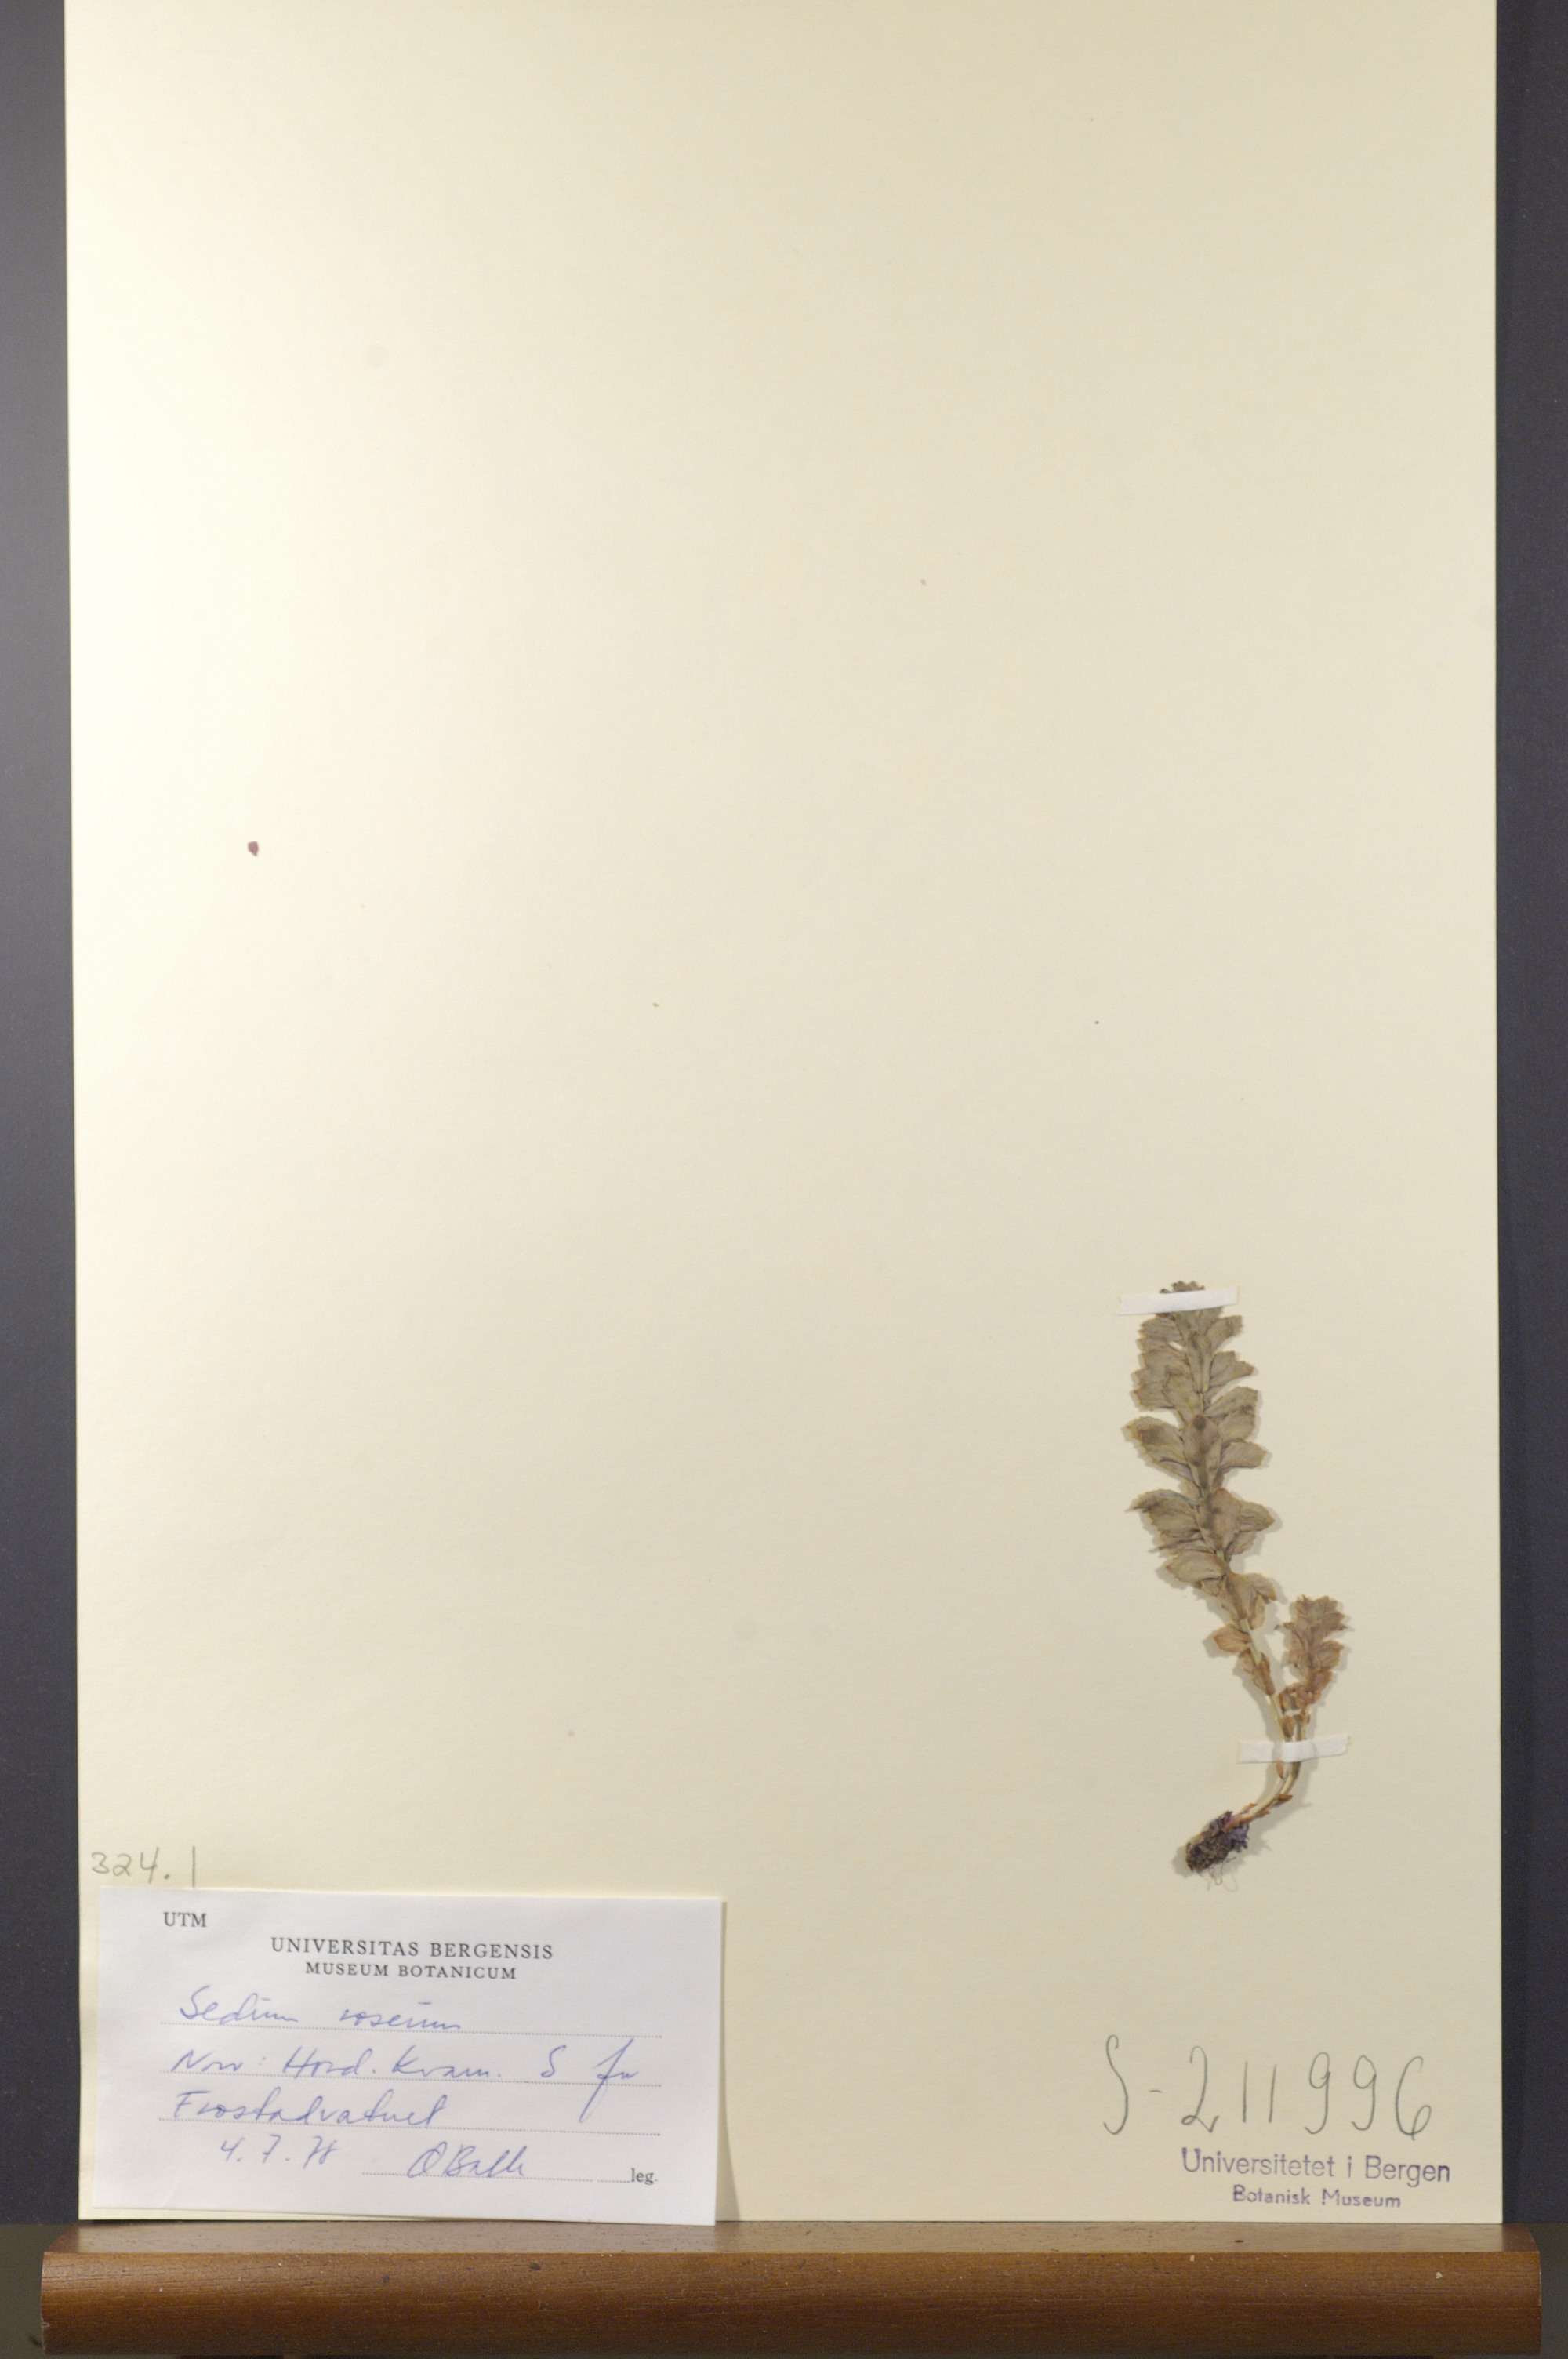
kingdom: Plantae
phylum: Tracheophyta
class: Magnoliopsida
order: Saxifragales
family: Crassulaceae
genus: Rhodiola
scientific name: Rhodiola rosea
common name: Roseroot
